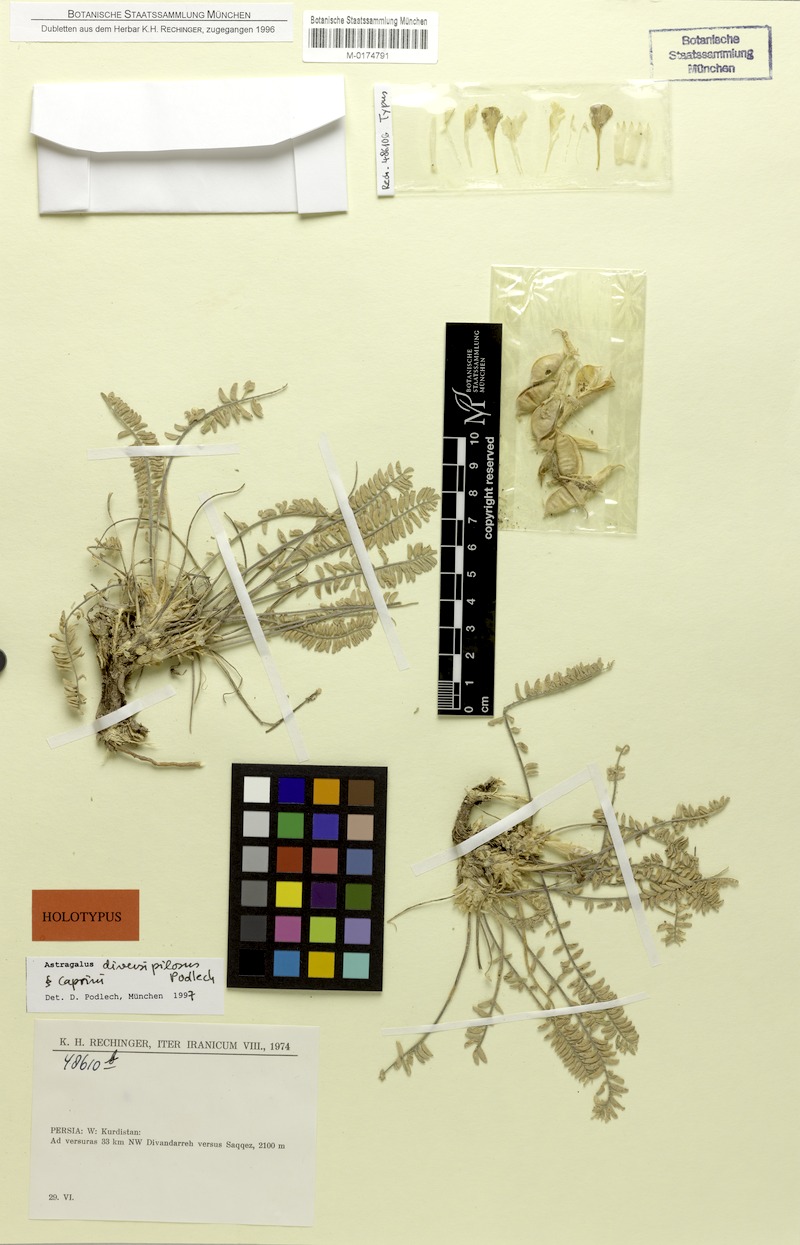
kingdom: Plantae
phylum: Tracheophyta
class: Magnoliopsida
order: Fabales
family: Fabaceae
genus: Astragalus
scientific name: Astragalus pseudoutriger
